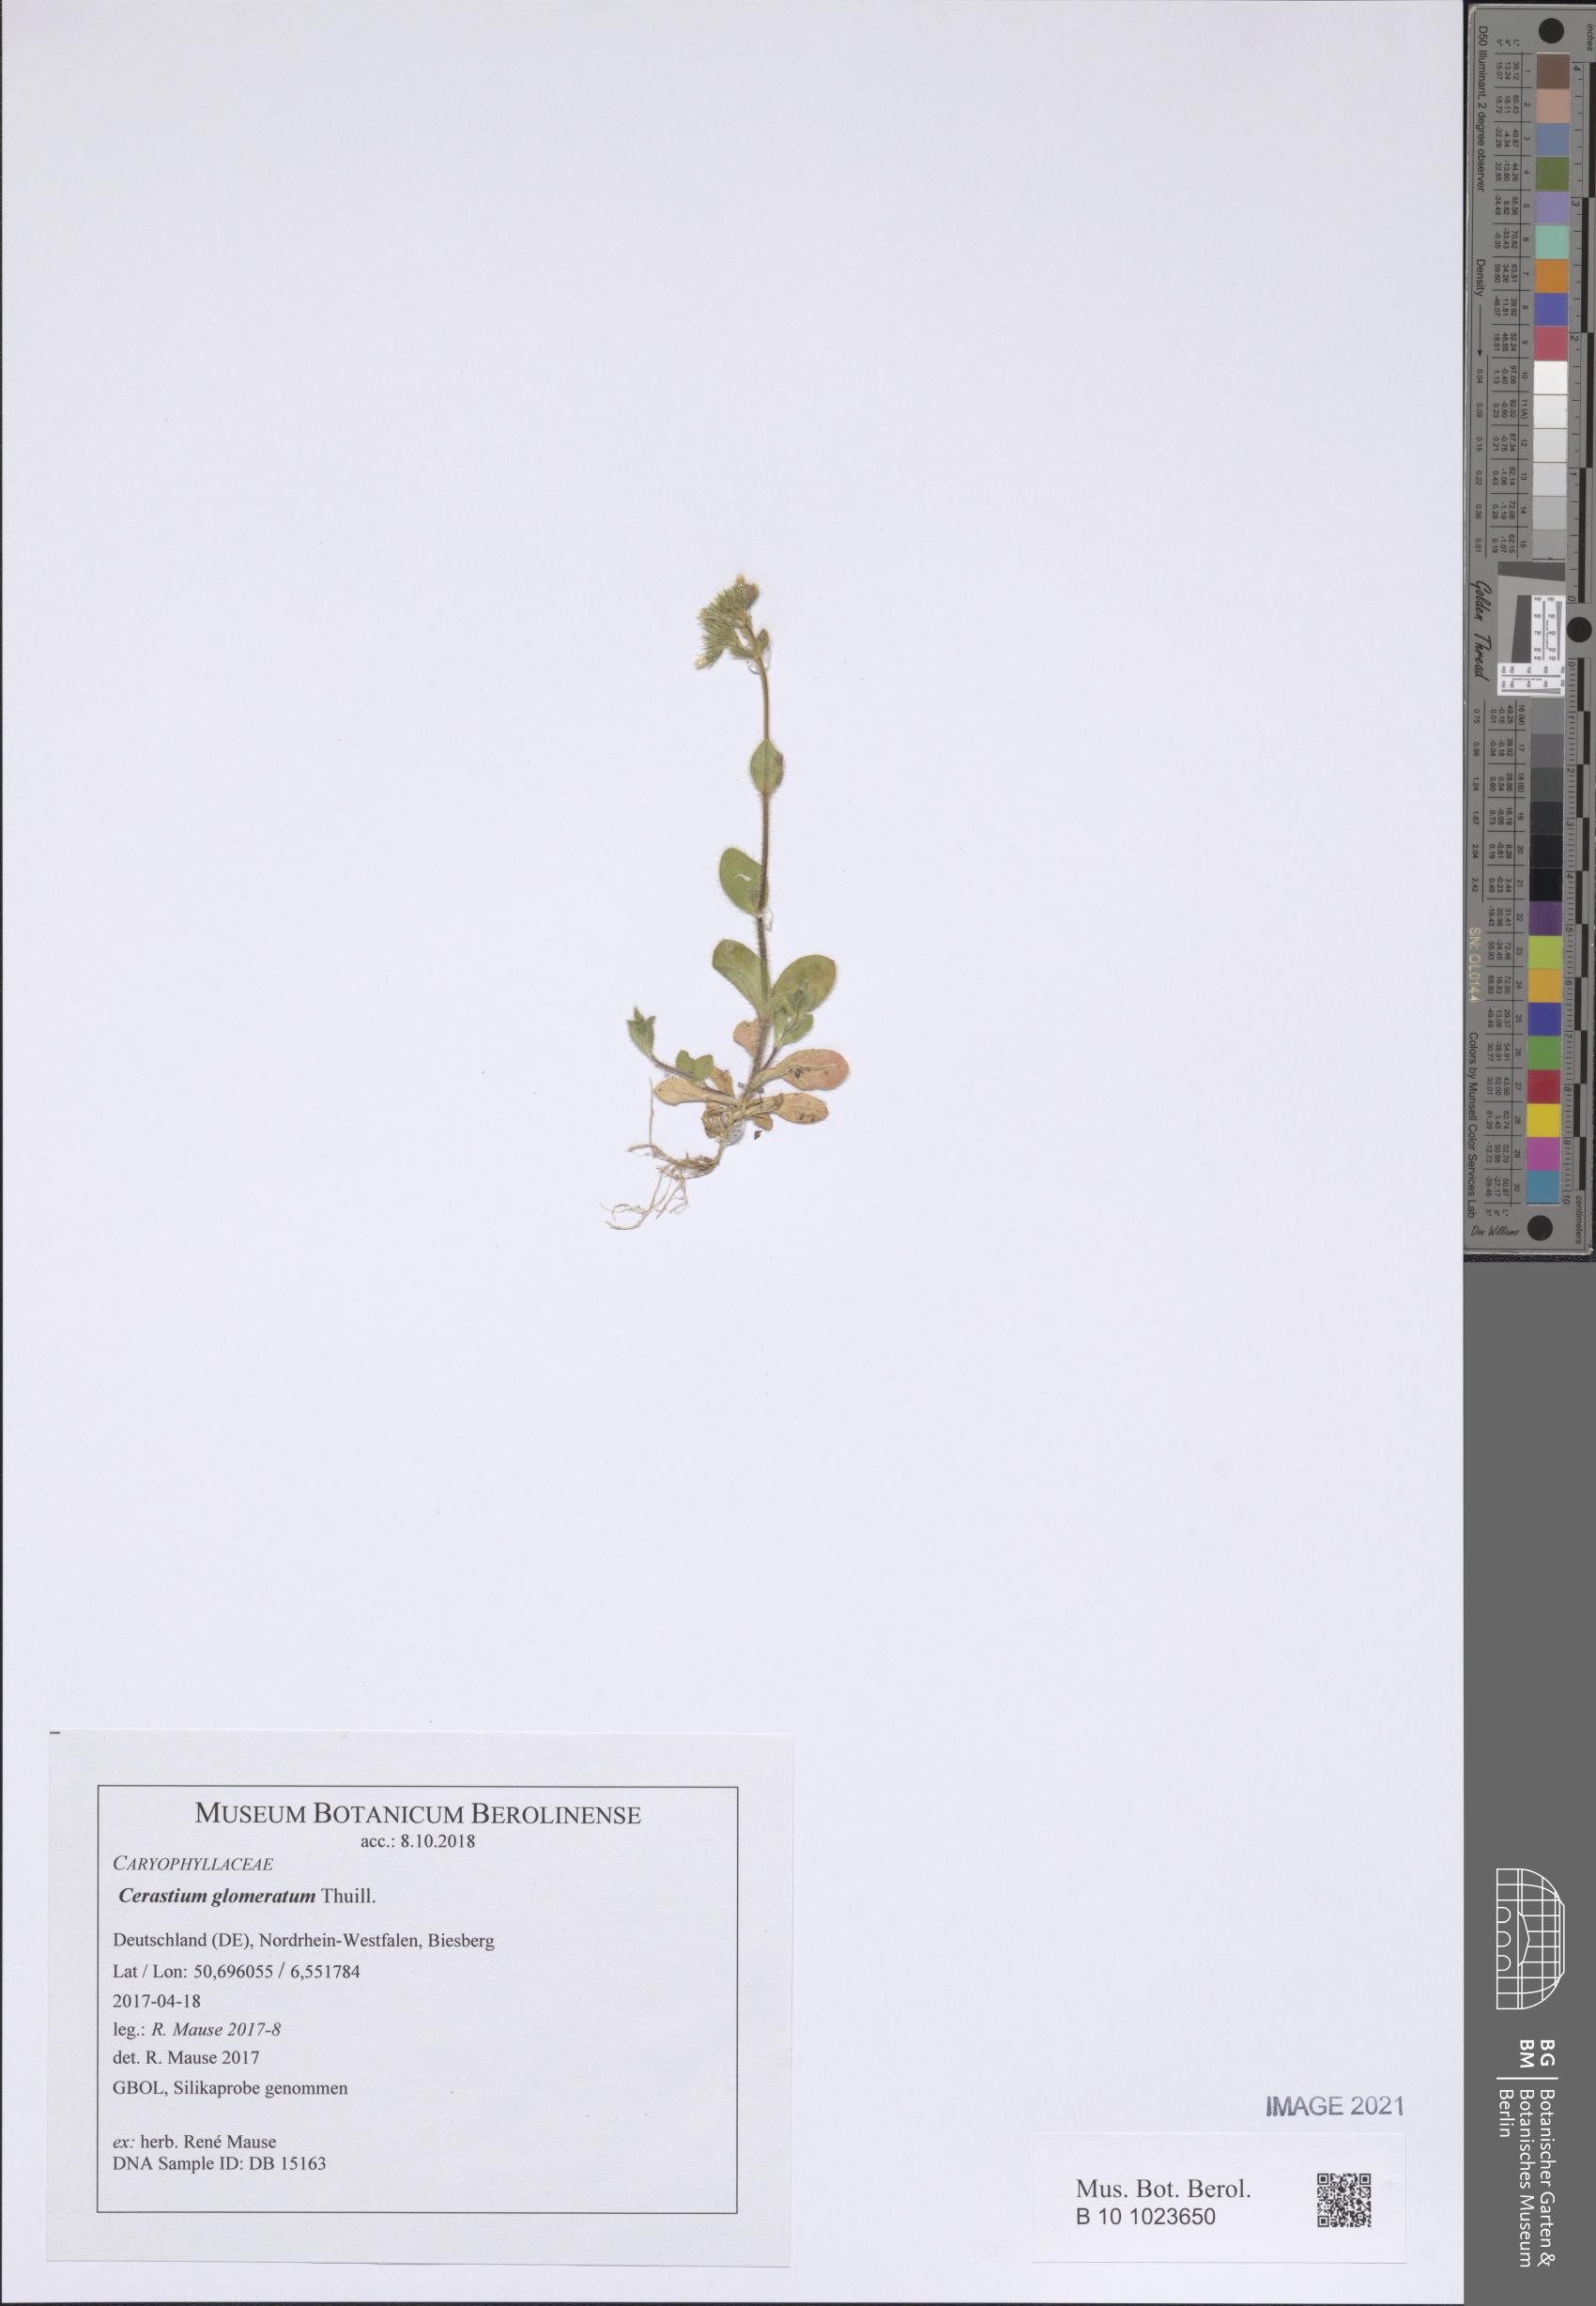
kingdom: Plantae
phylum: Tracheophyta
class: Magnoliopsida
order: Caryophyllales
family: Caryophyllaceae
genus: Cerastium
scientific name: Cerastium glomeratum
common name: Sticky chickweed
